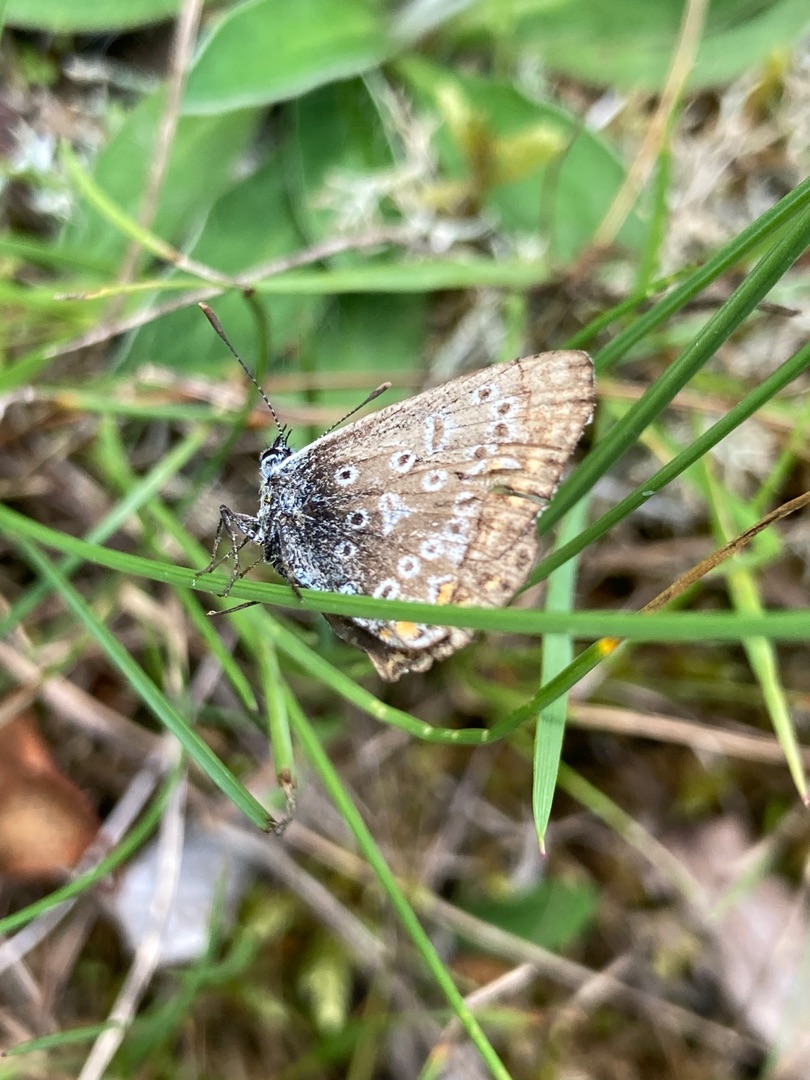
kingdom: Animalia
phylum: Arthropoda
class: Insecta
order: Lepidoptera
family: Lycaenidae
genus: Polyommatus
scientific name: Polyommatus icarus
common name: Almindelig blåfugl
